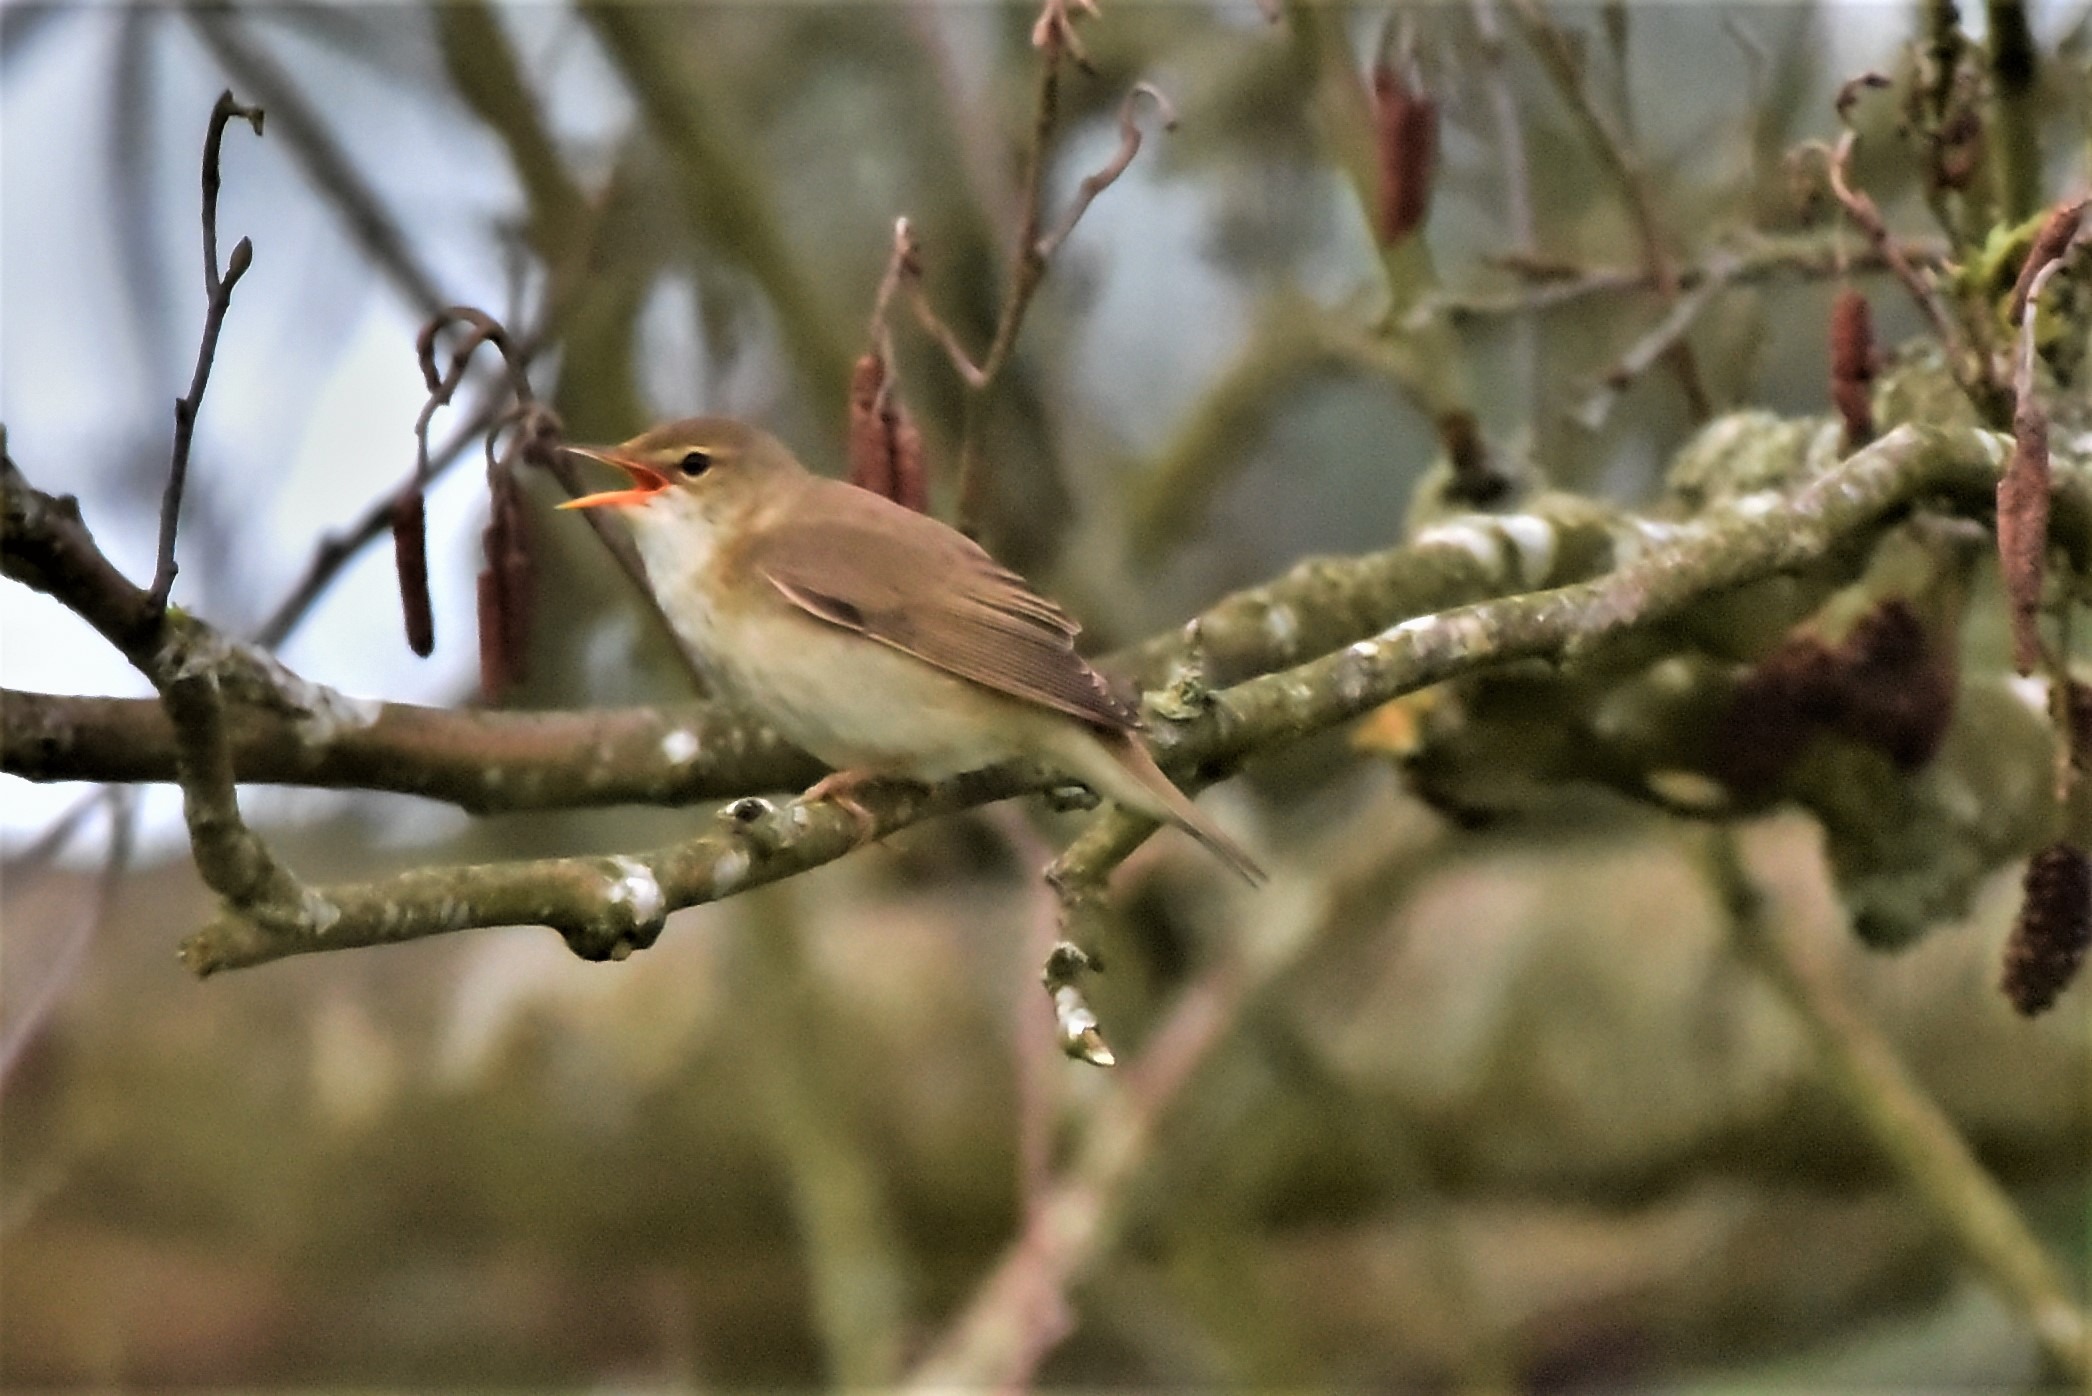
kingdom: Animalia
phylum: Chordata
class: Aves
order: Passeriformes
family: Acrocephalidae
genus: Acrocephalus
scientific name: Acrocephalus palustris
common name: Kærsanger
